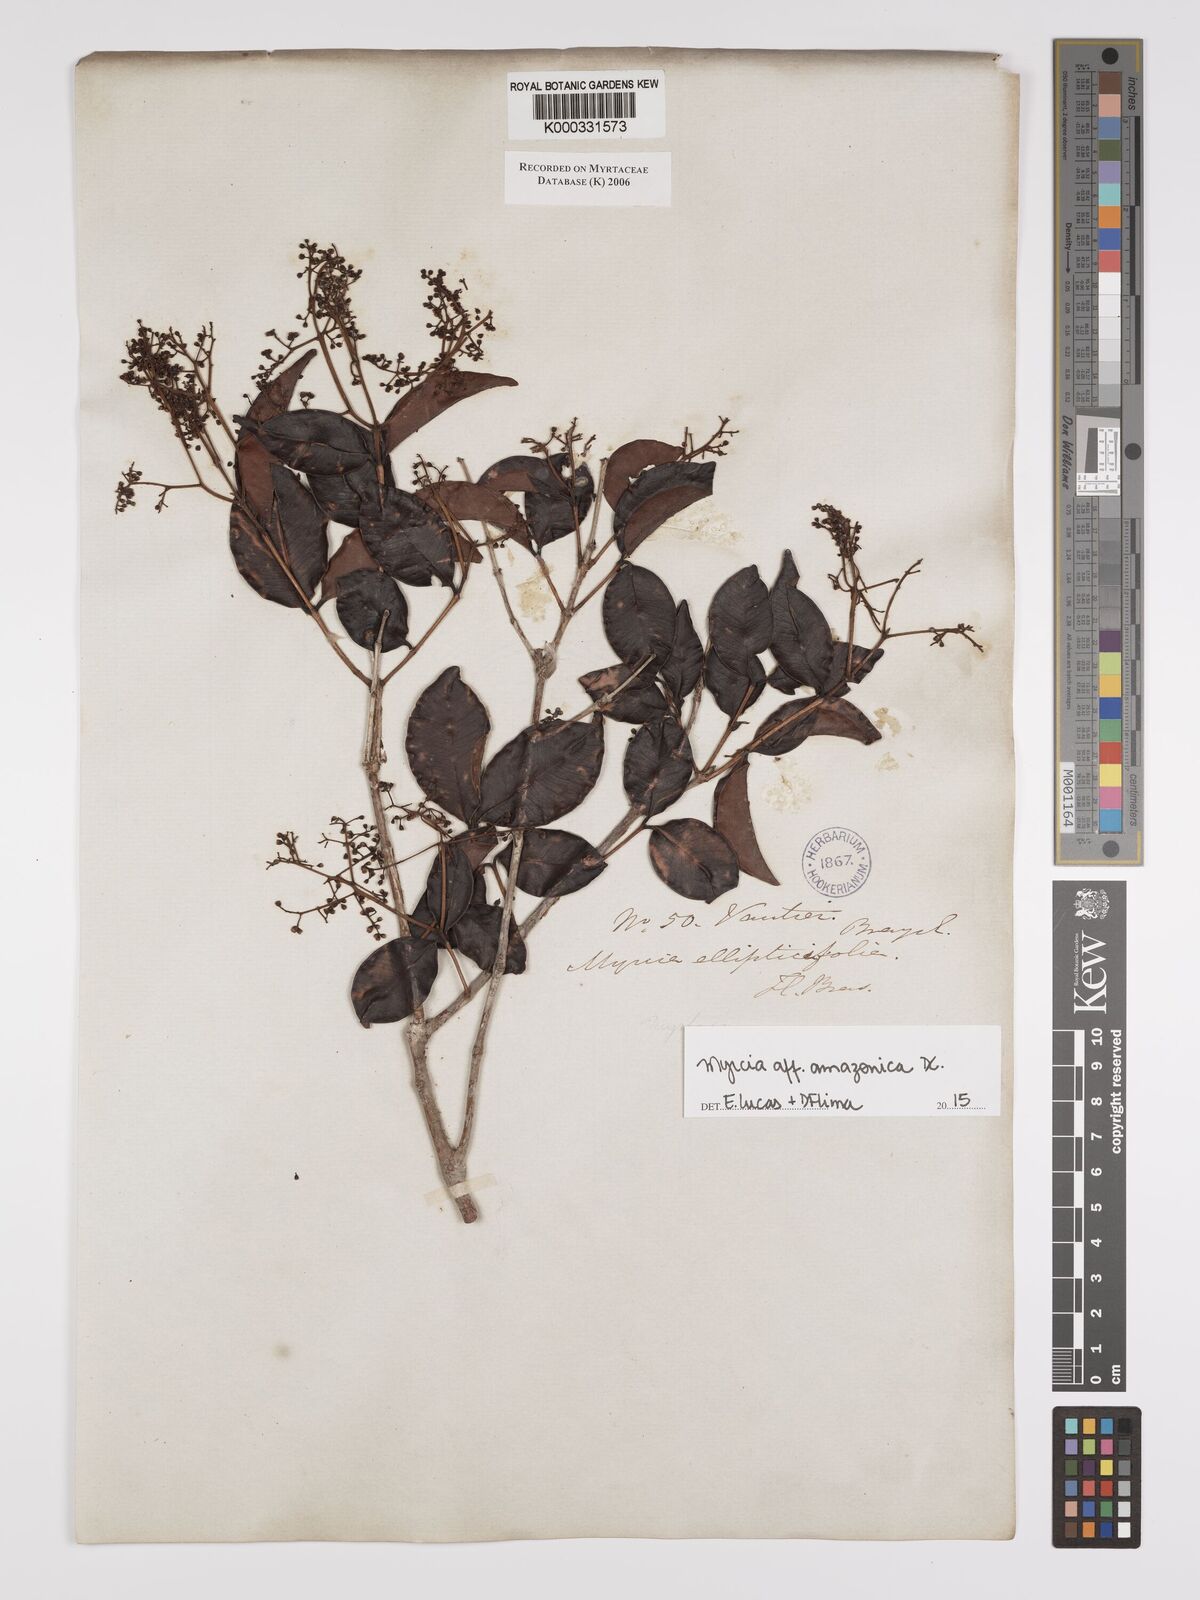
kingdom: Plantae
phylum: Tracheophyta
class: Magnoliopsida
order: Myrtales
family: Myrtaceae
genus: Myrcia
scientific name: Myrcia
